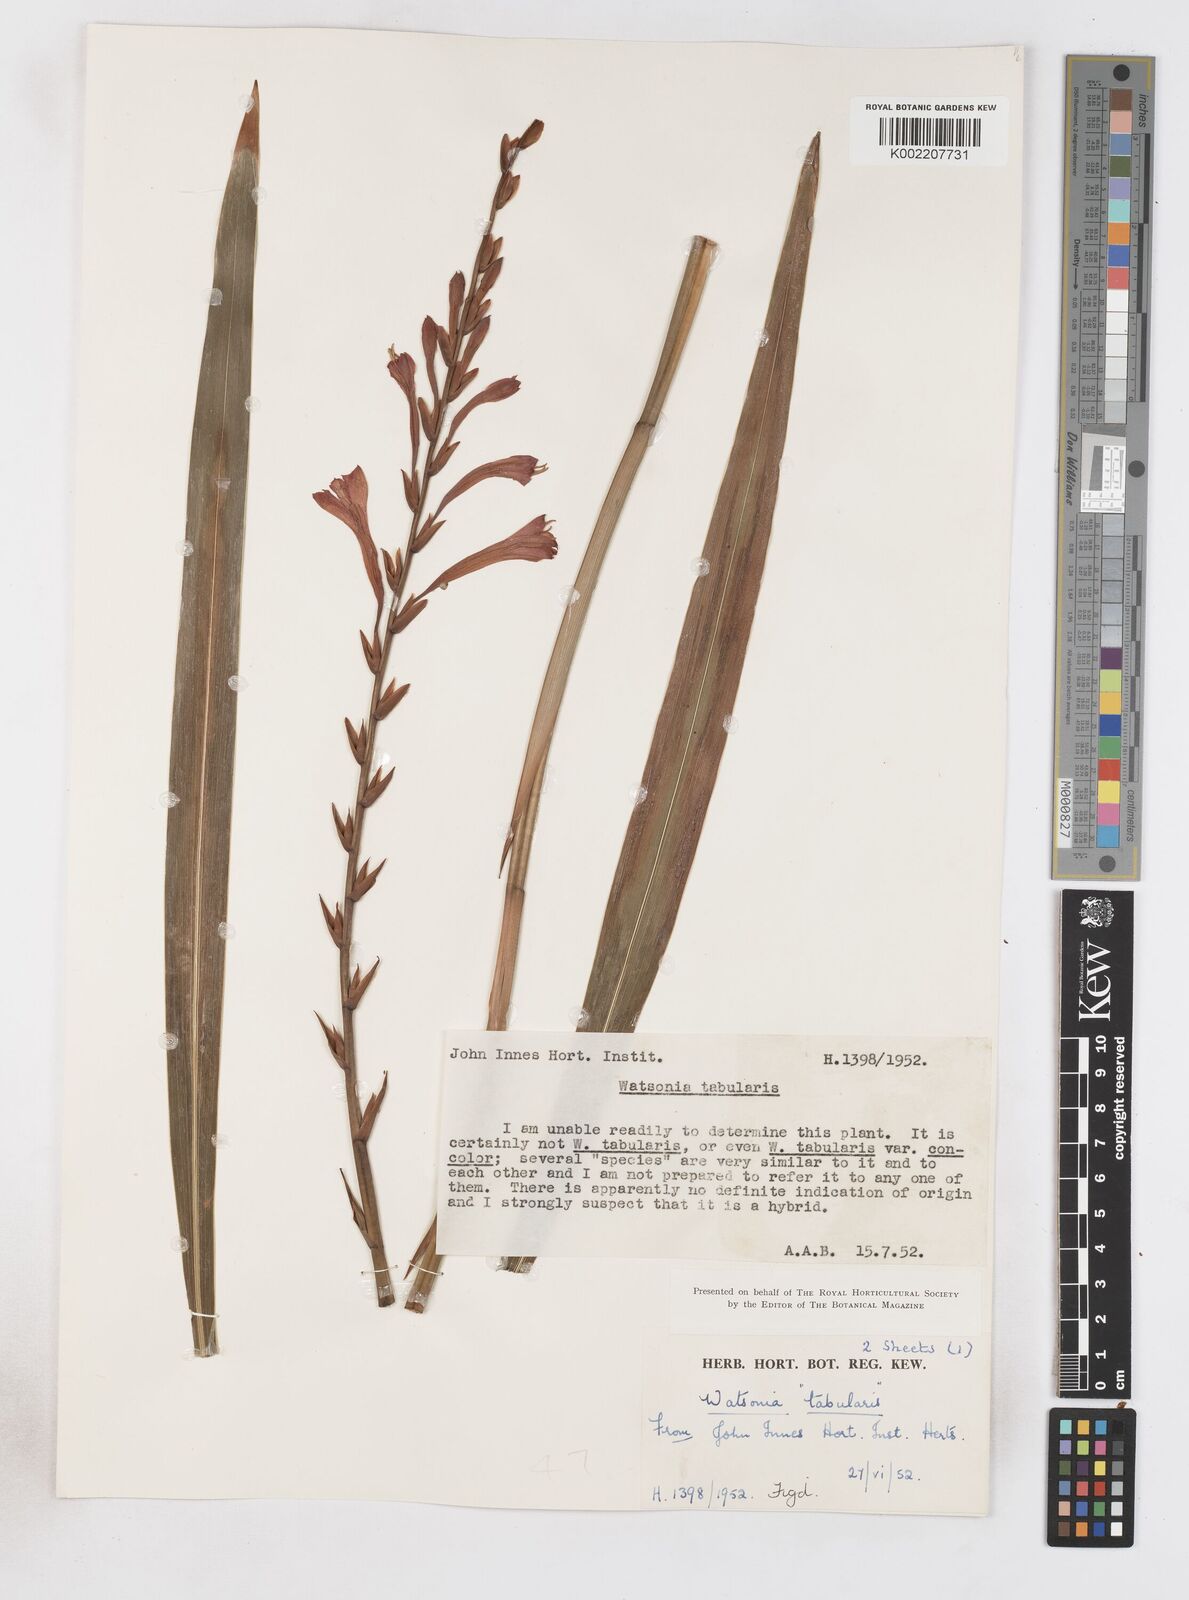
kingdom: Plantae
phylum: Tracheophyta
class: Liliopsida
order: Asparagales
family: Iridaceae
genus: Watsonia
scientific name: Watsonia
